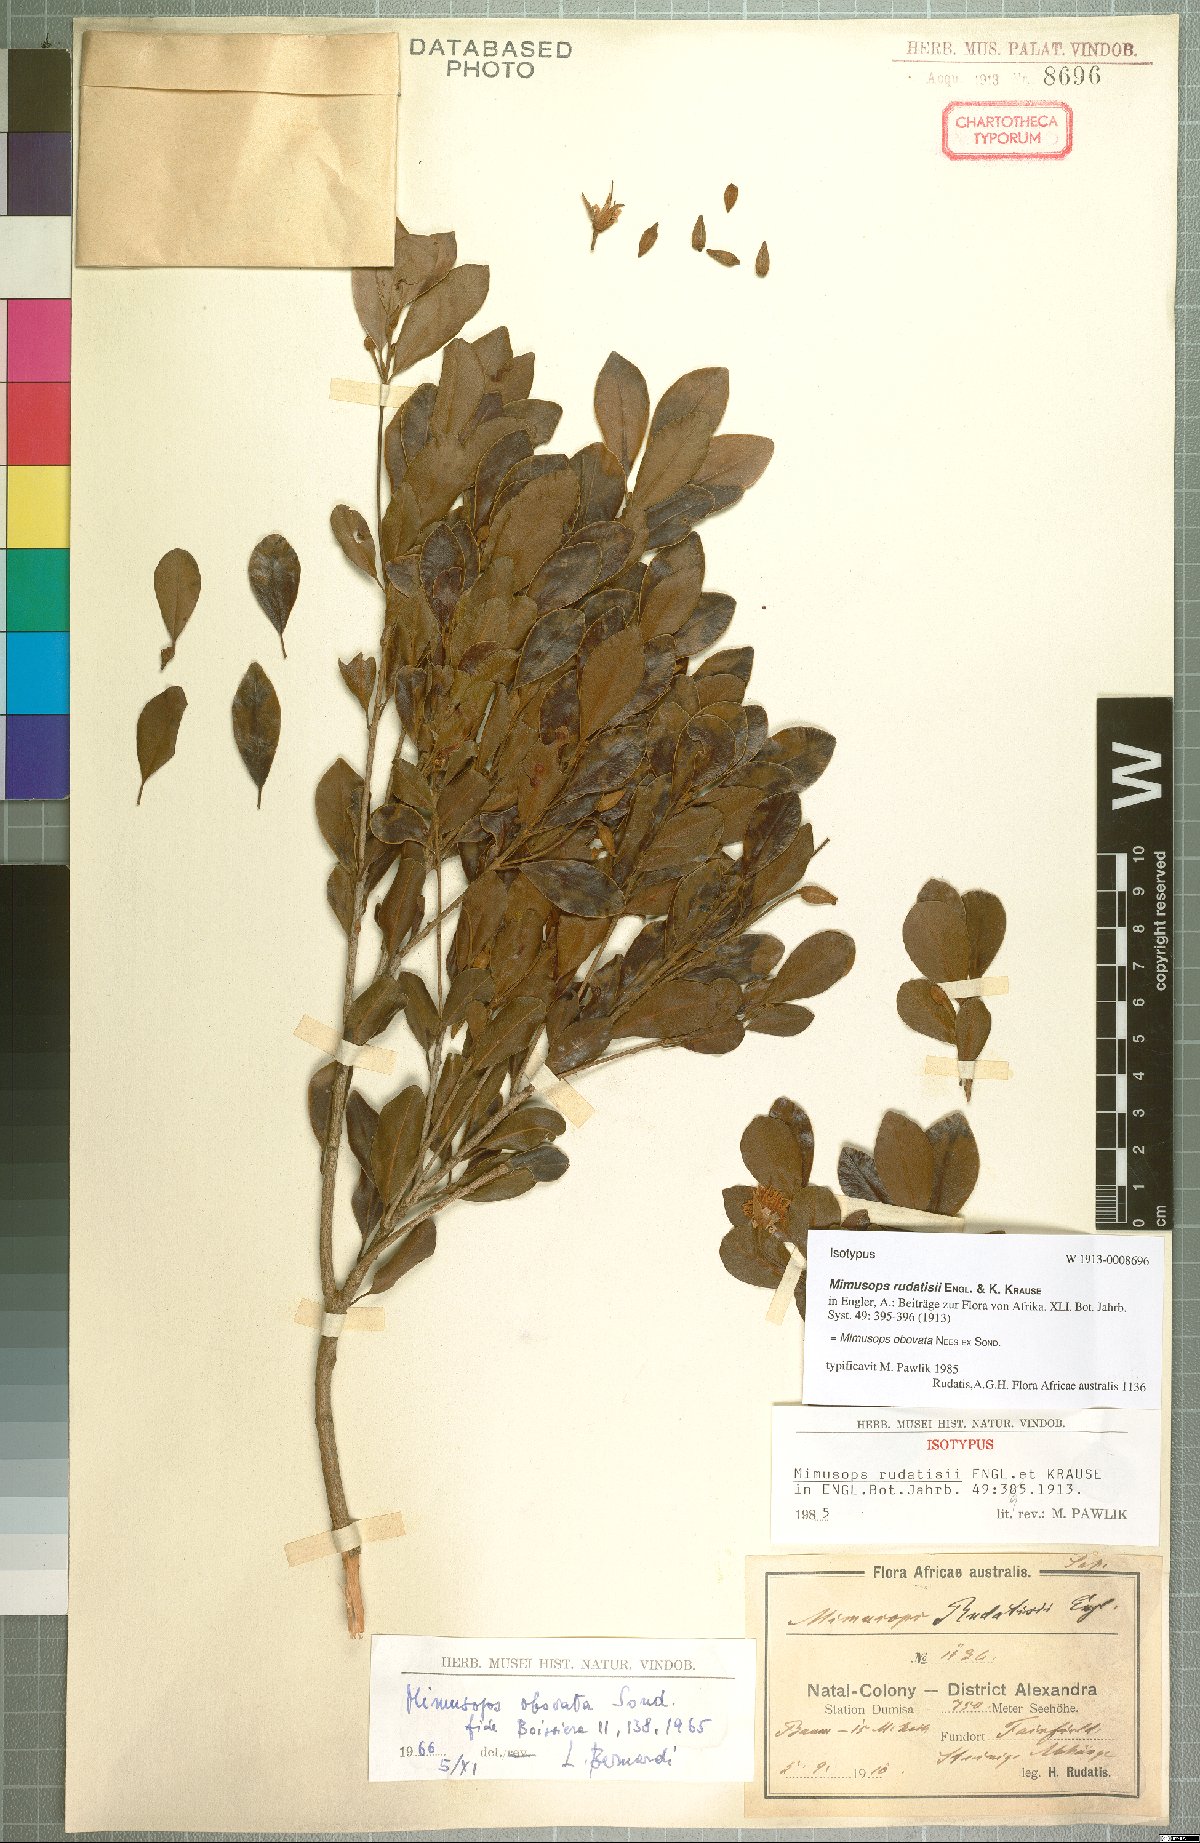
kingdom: Plantae
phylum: Tracheophyta
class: Magnoliopsida
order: Ericales
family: Sapotaceae
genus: Mimusops
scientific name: Mimusops obovata
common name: Red milkwood
